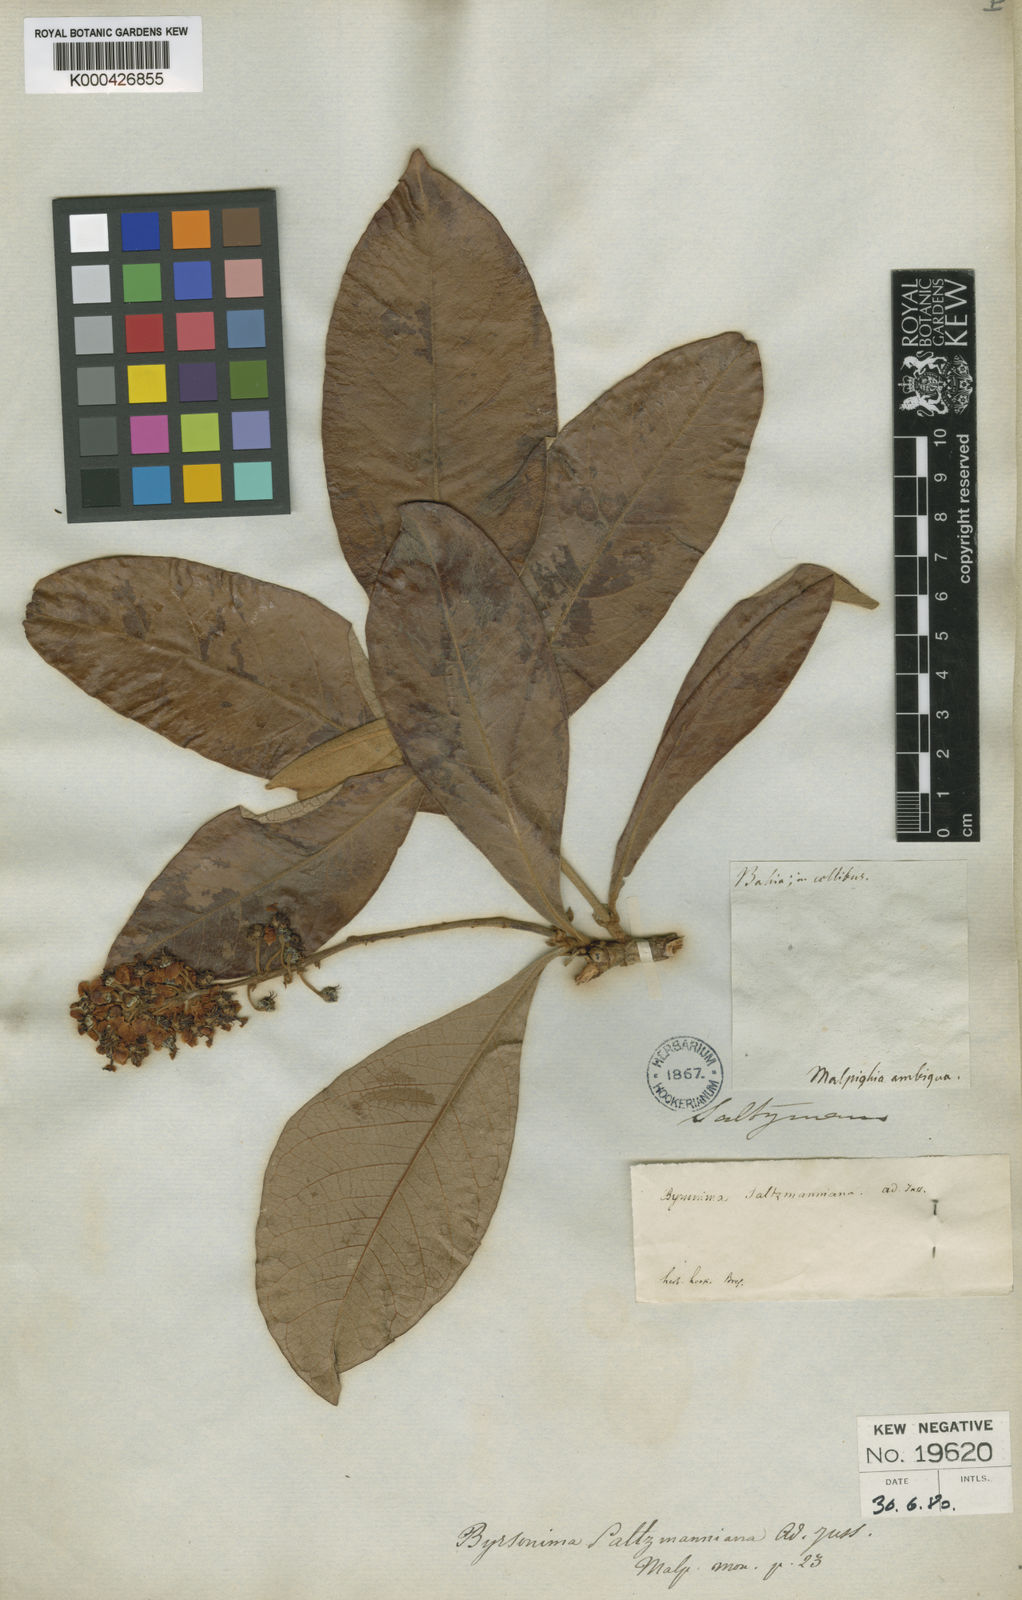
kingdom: Plantae
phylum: Tracheophyta
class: Magnoliopsida
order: Malpighiales
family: Malpighiaceae
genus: Byrsonima
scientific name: Byrsonima salzmanniana
